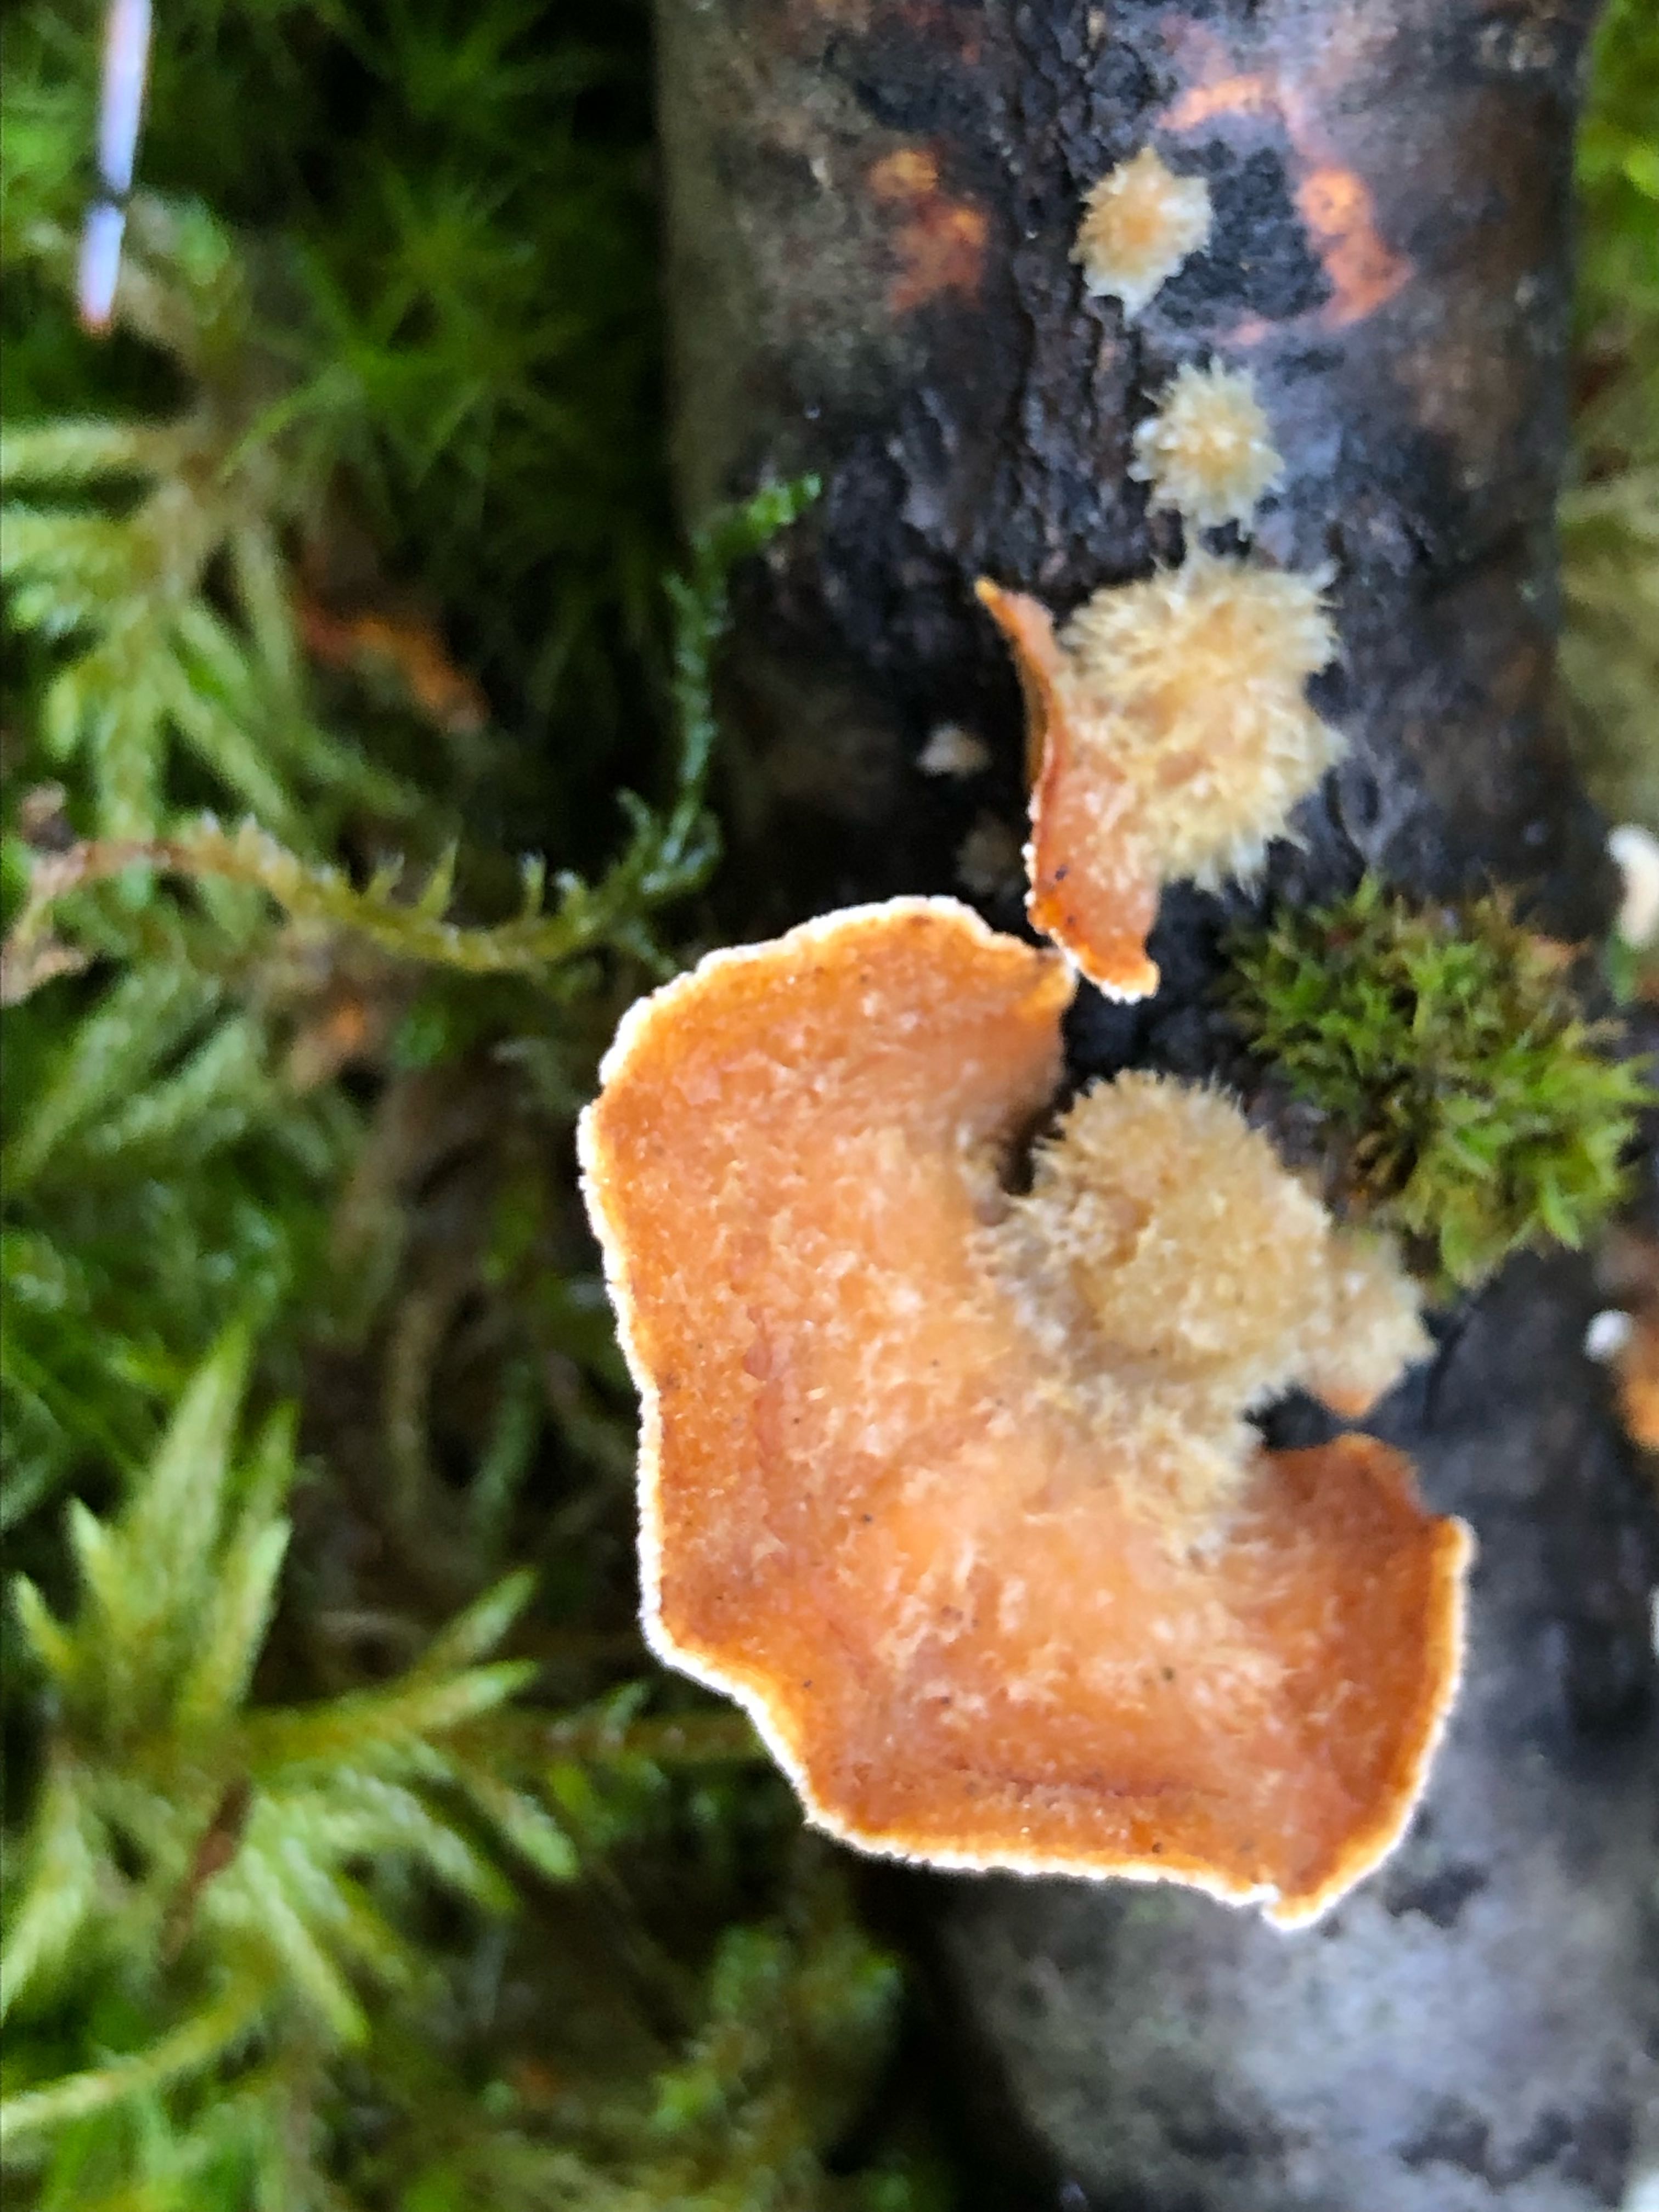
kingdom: Fungi
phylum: Basidiomycota
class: Agaricomycetes
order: Russulales
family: Stereaceae
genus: Stereum
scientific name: Stereum hirsutum
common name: håret lædersvamp
